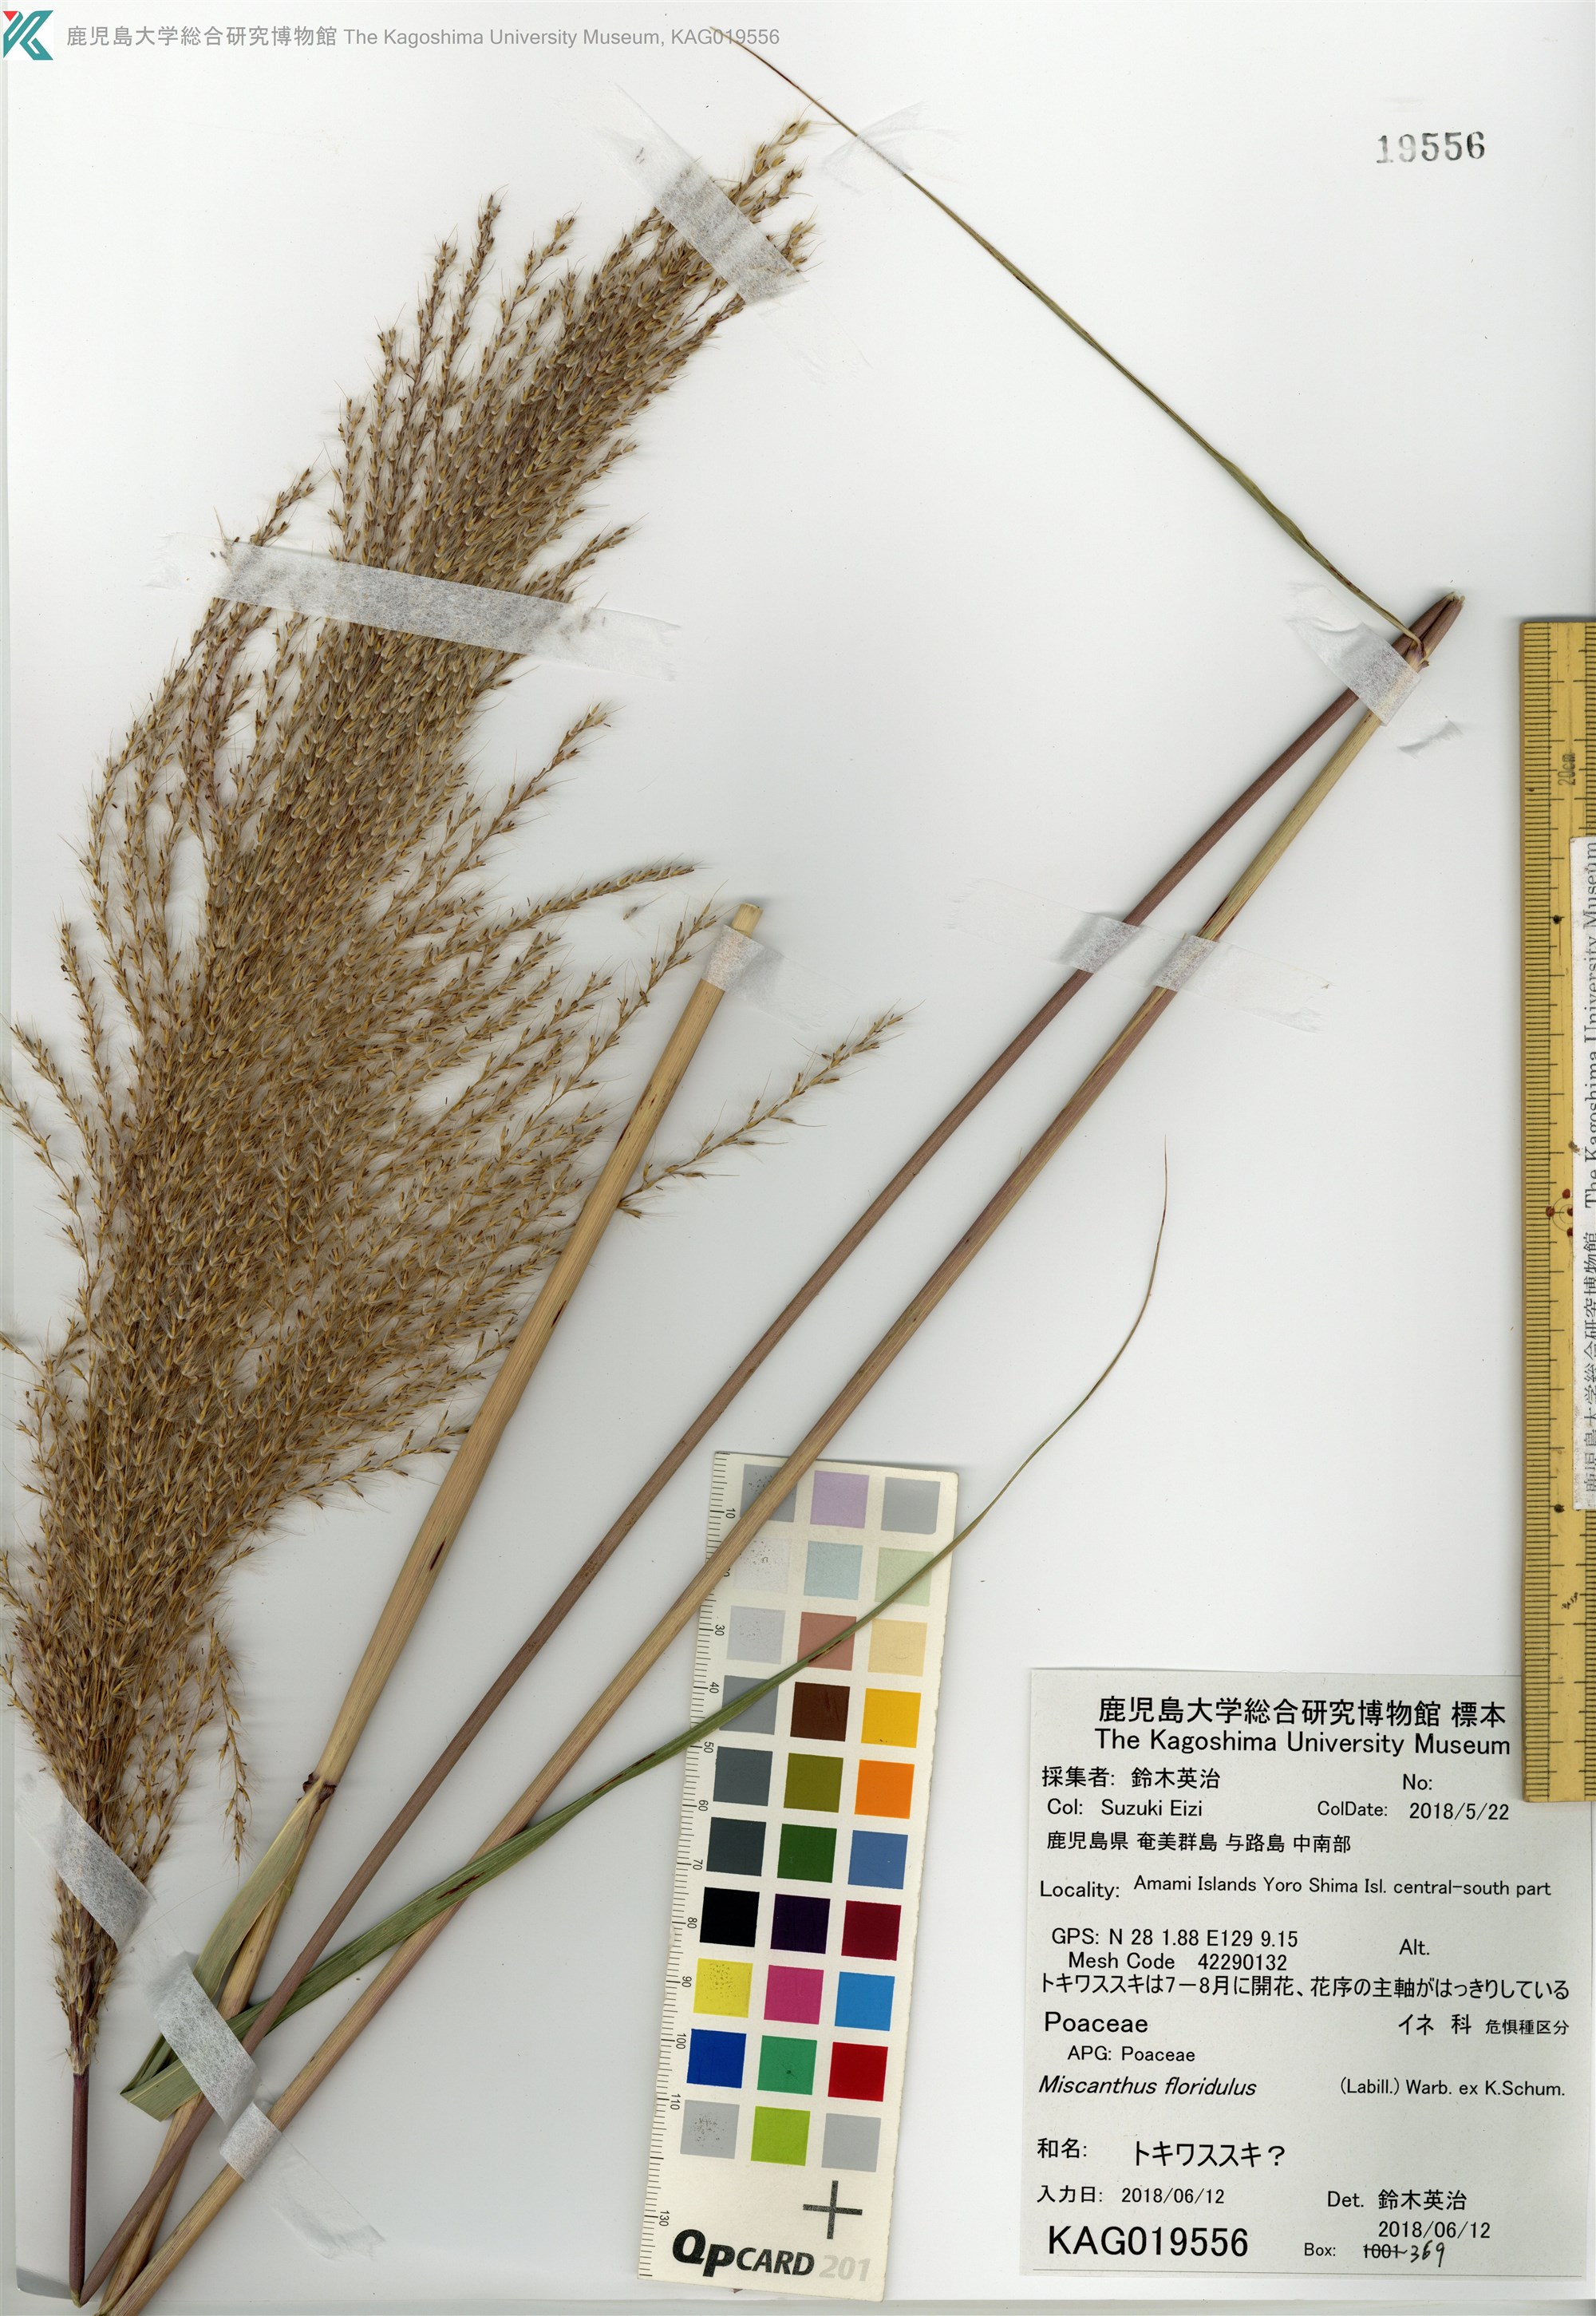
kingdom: Plantae
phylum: Tracheophyta
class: Liliopsida
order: Poales
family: Poaceae
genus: Miscanthus
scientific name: Miscanthus
